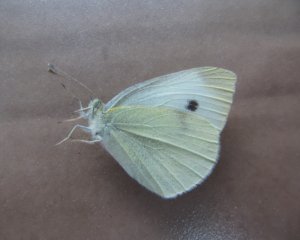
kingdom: Animalia
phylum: Arthropoda
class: Insecta
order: Lepidoptera
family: Pieridae
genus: Pieris
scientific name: Pieris rapae
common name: Cabbage White
